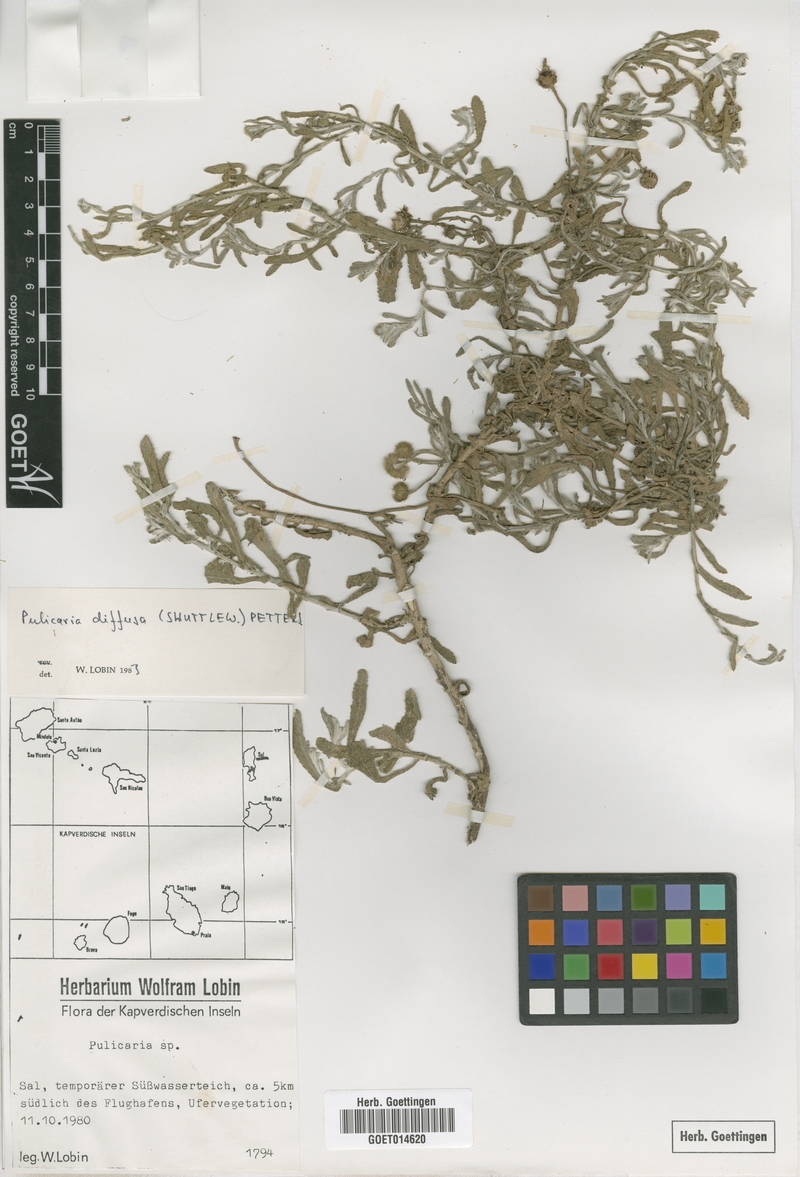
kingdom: Plantae
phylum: Tracheophyta
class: Magnoliopsida
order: Asterales
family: Asteraceae
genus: Pulicaria
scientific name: Pulicaria diffusa
